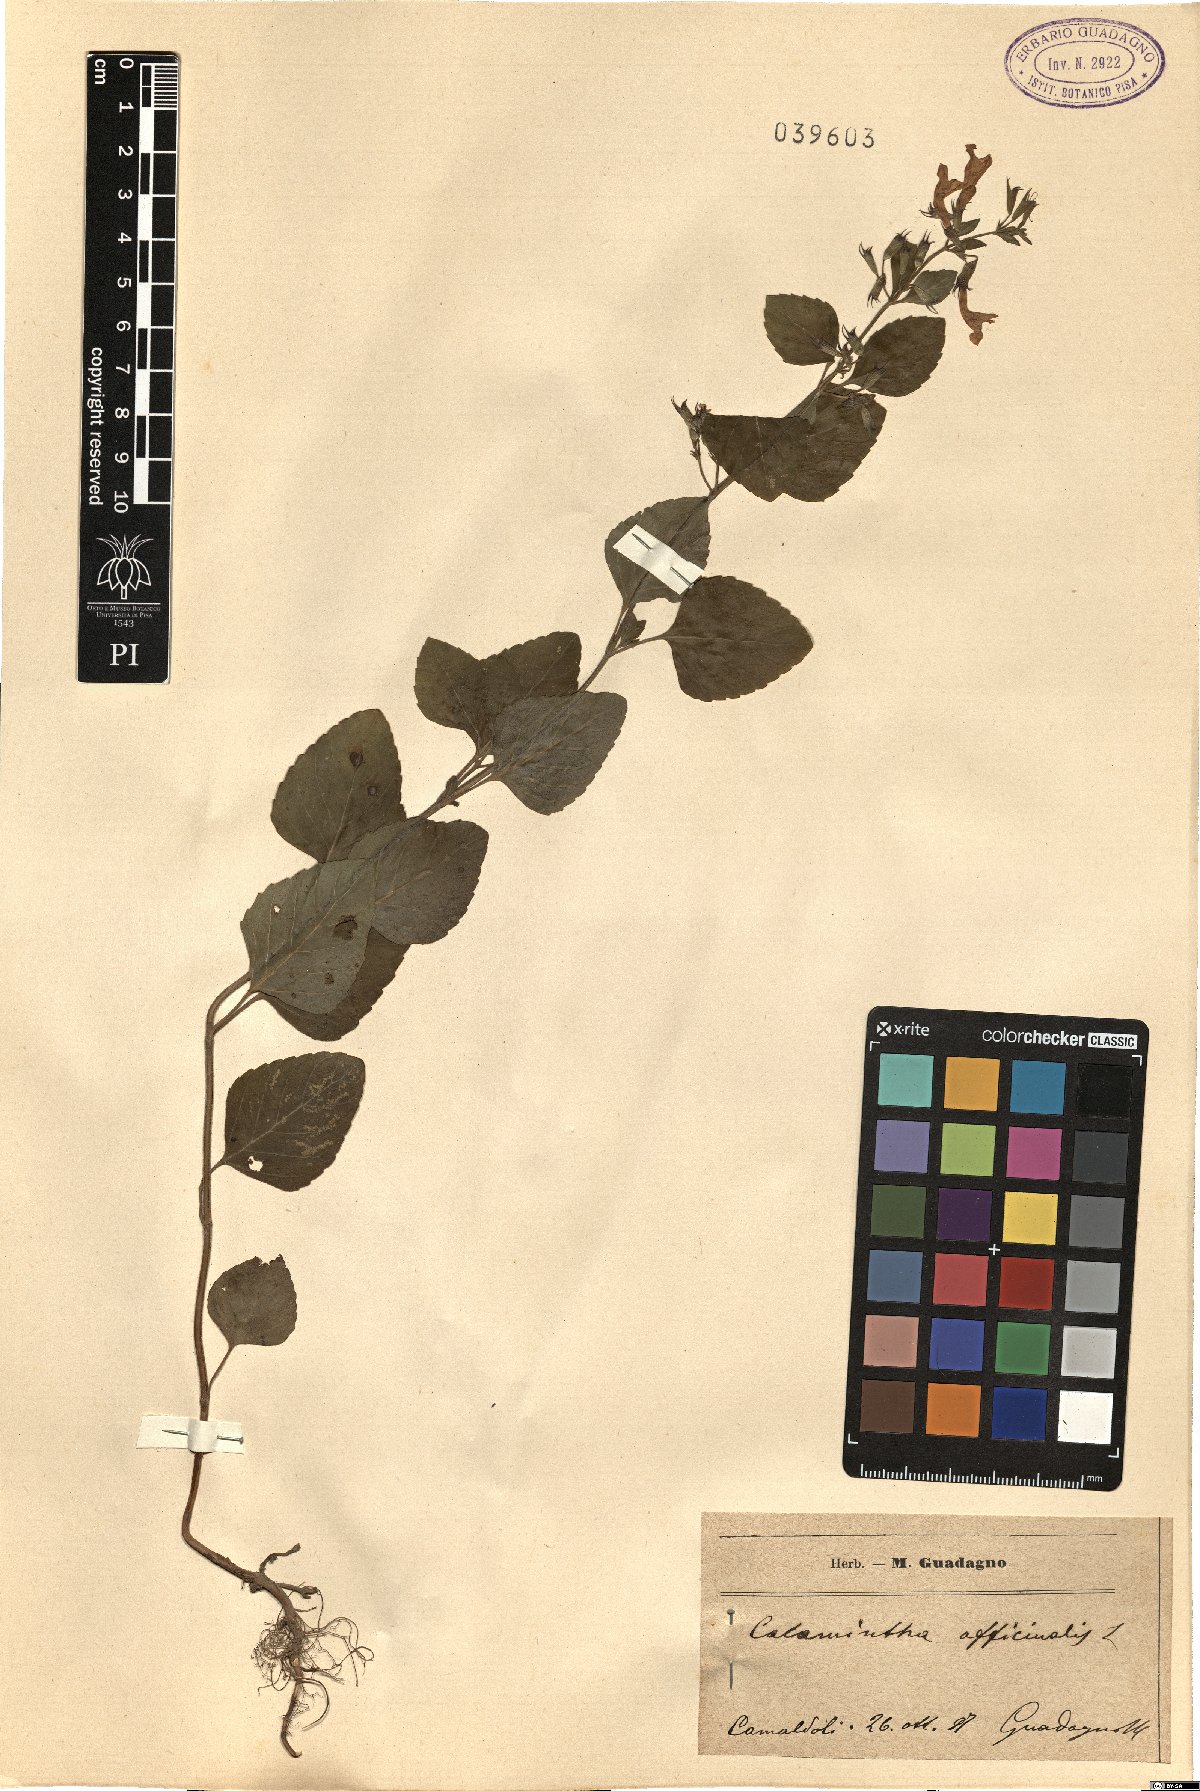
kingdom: Plantae
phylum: Tracheophyta
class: Magnoliopsida
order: Lamiales
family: Lamiaceae
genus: Clinopodium
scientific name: Clinopodium nepeta
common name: Lesser calamint
